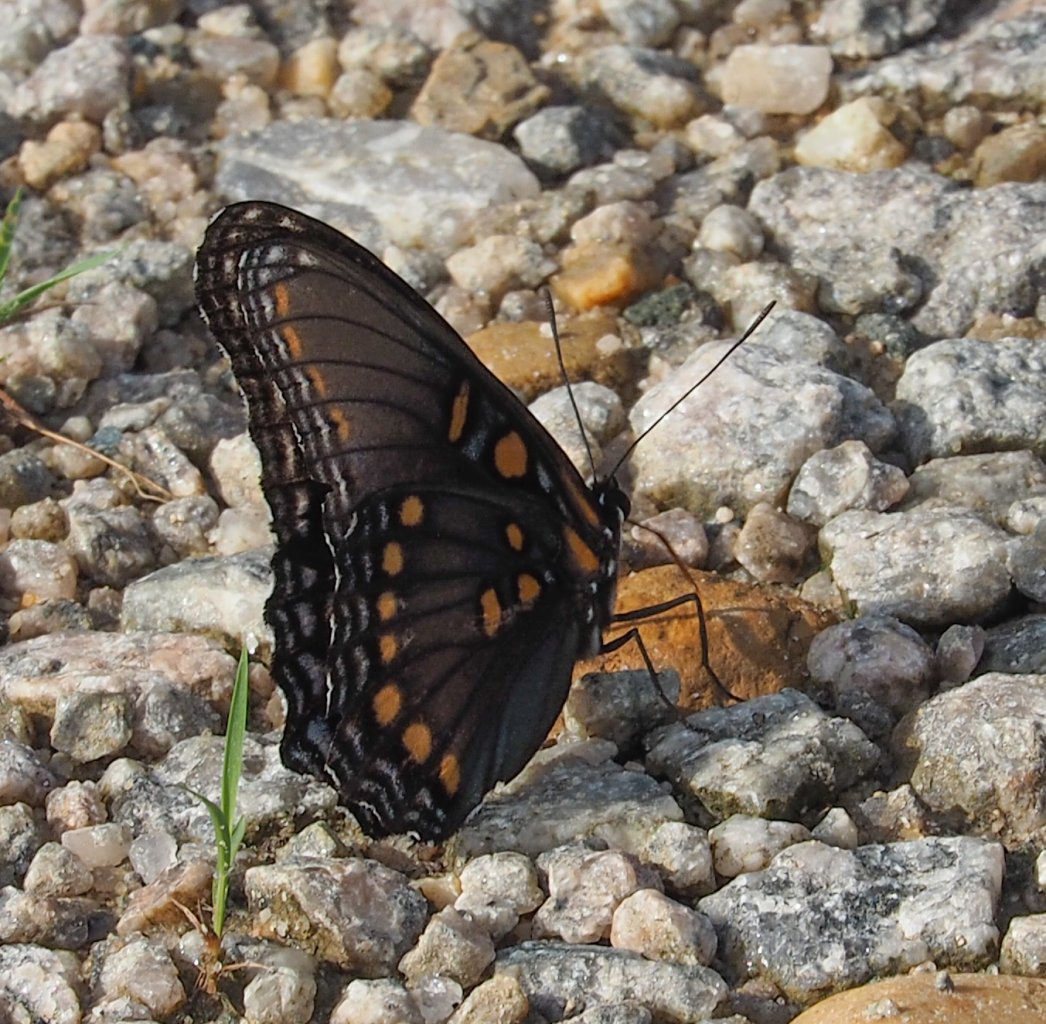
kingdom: Animalia
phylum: Arthropoda
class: Insecta
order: Lepidoptera
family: Nymphalidae
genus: Limenitis
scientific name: Limenitis astyanax
